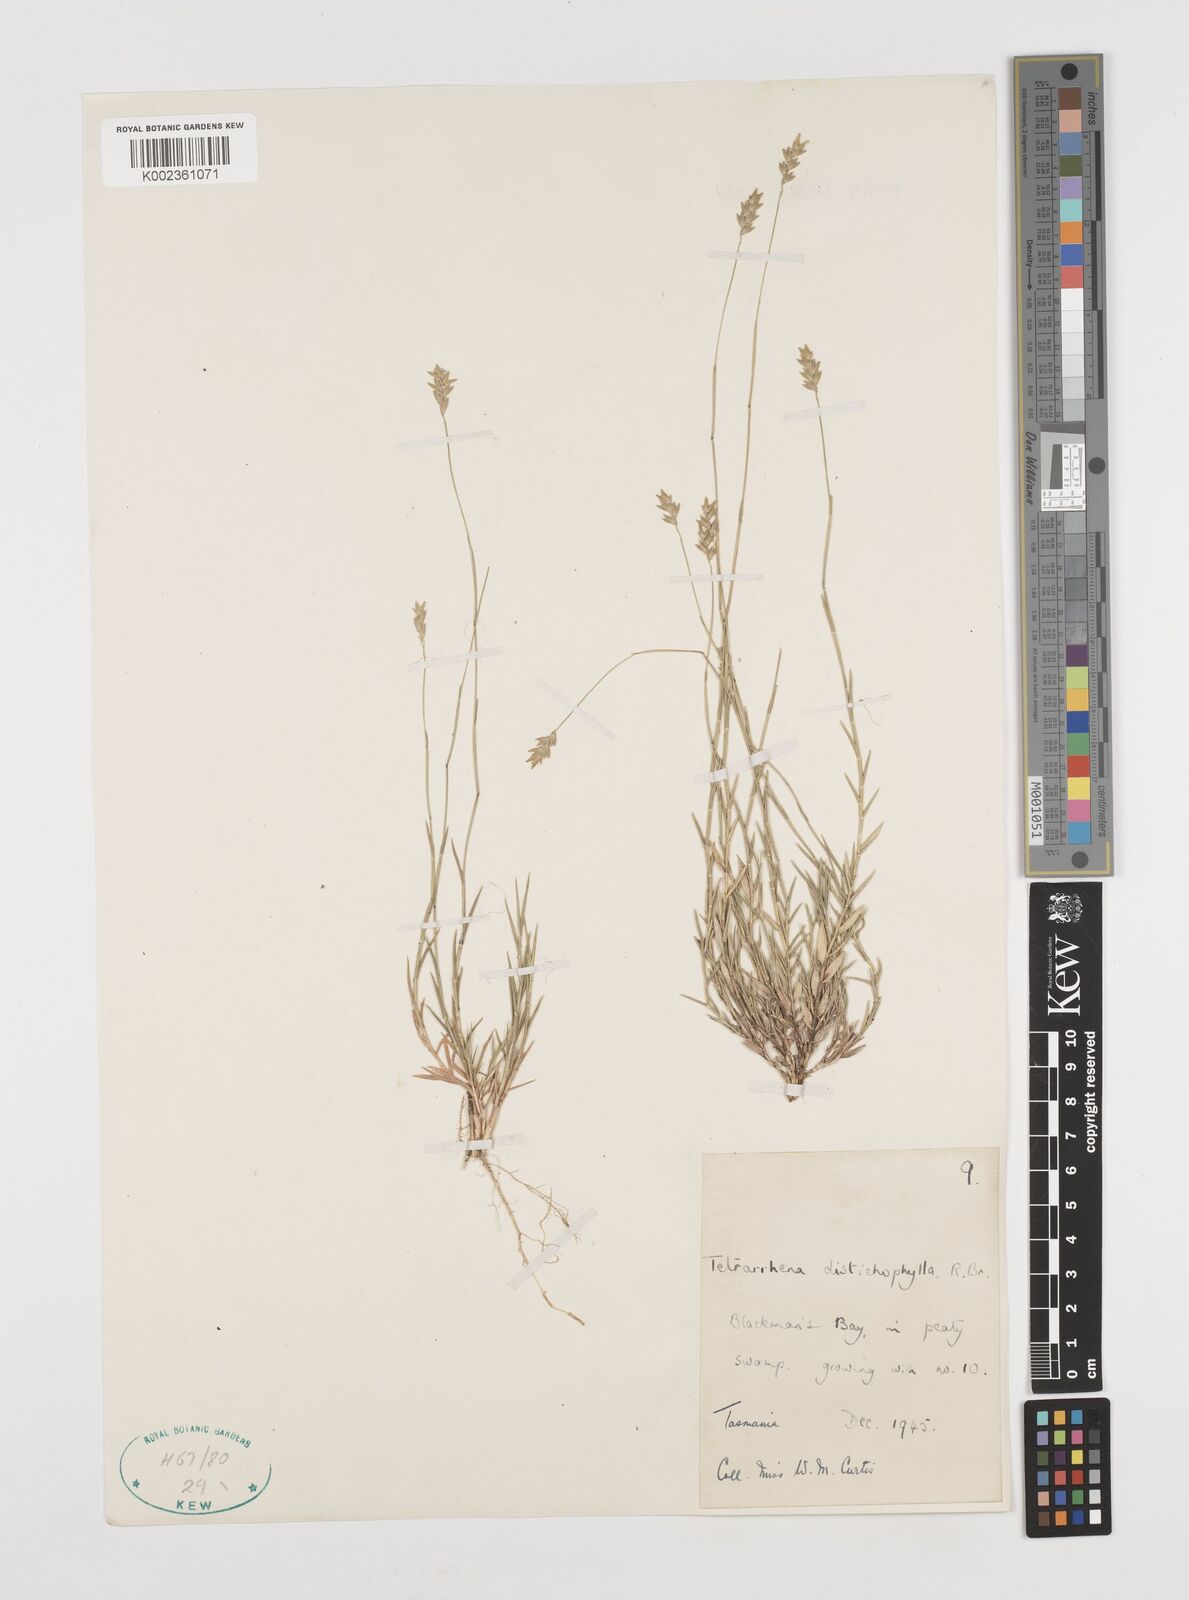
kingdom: Plantae
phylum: Tracheophyta
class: Liliopsida
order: Poales
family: Poaceae
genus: Tetrarrhena
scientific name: Tetrarrhena distichophylla
